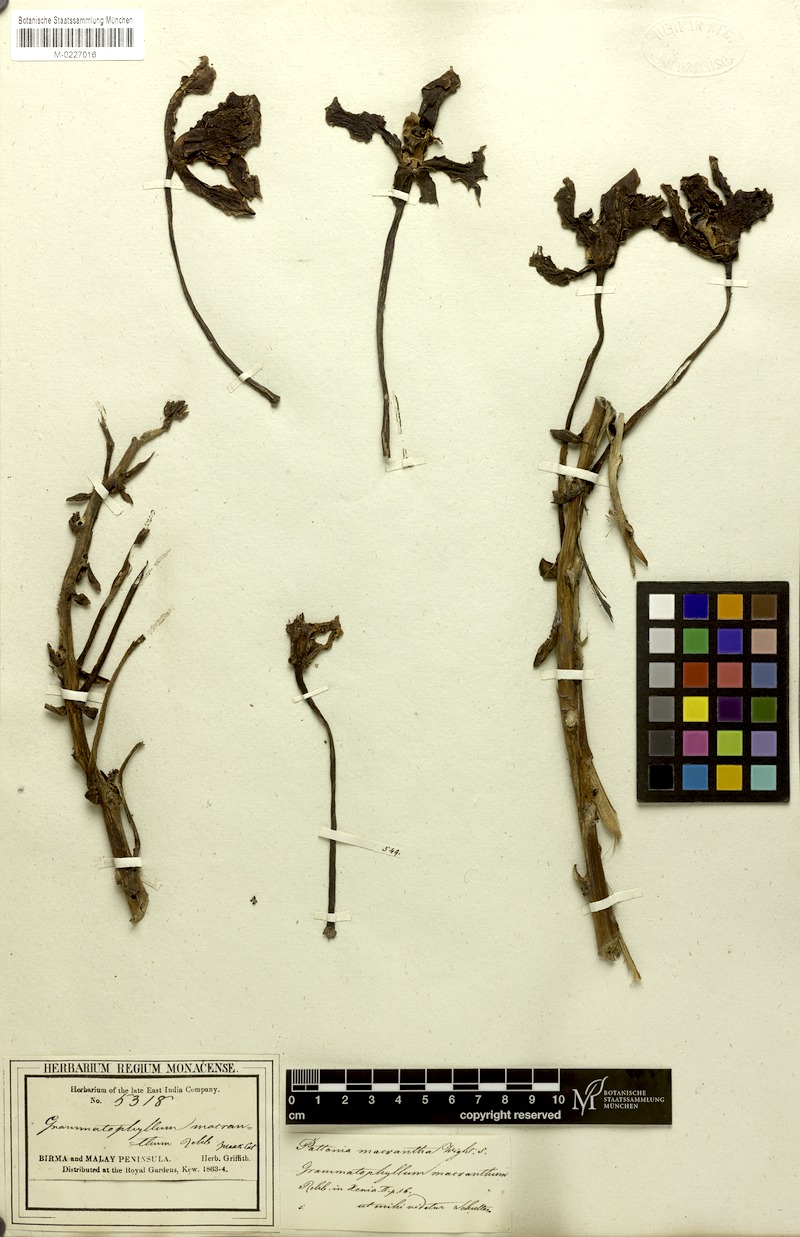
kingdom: Plantae
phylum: Tracheophyta
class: Liliopsida
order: Asparagales
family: Orchidaceae
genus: Grammatophyllum
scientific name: Grammatophyllum speciosum
